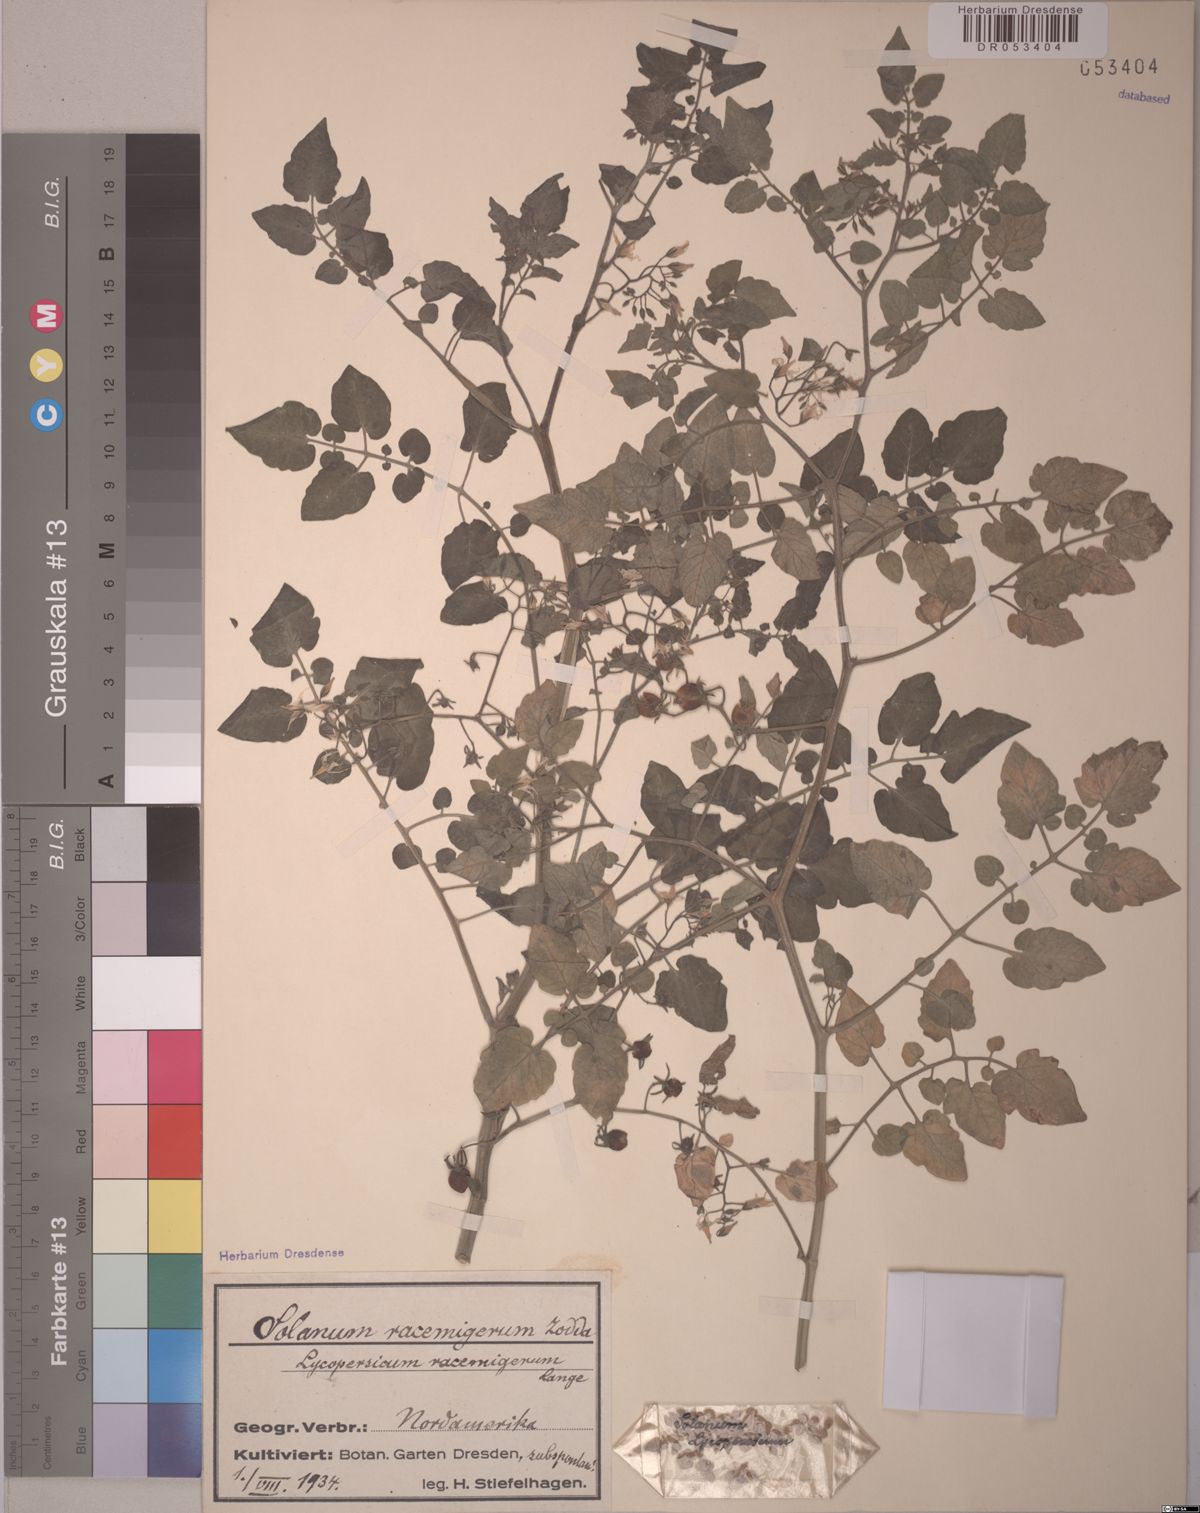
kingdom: Plantae
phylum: Tracheophyta
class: Magnoliopsida
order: Solanales
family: Solanaceae
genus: Solanum
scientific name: Solanum pimpinellifolium
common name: Currant-tomato
